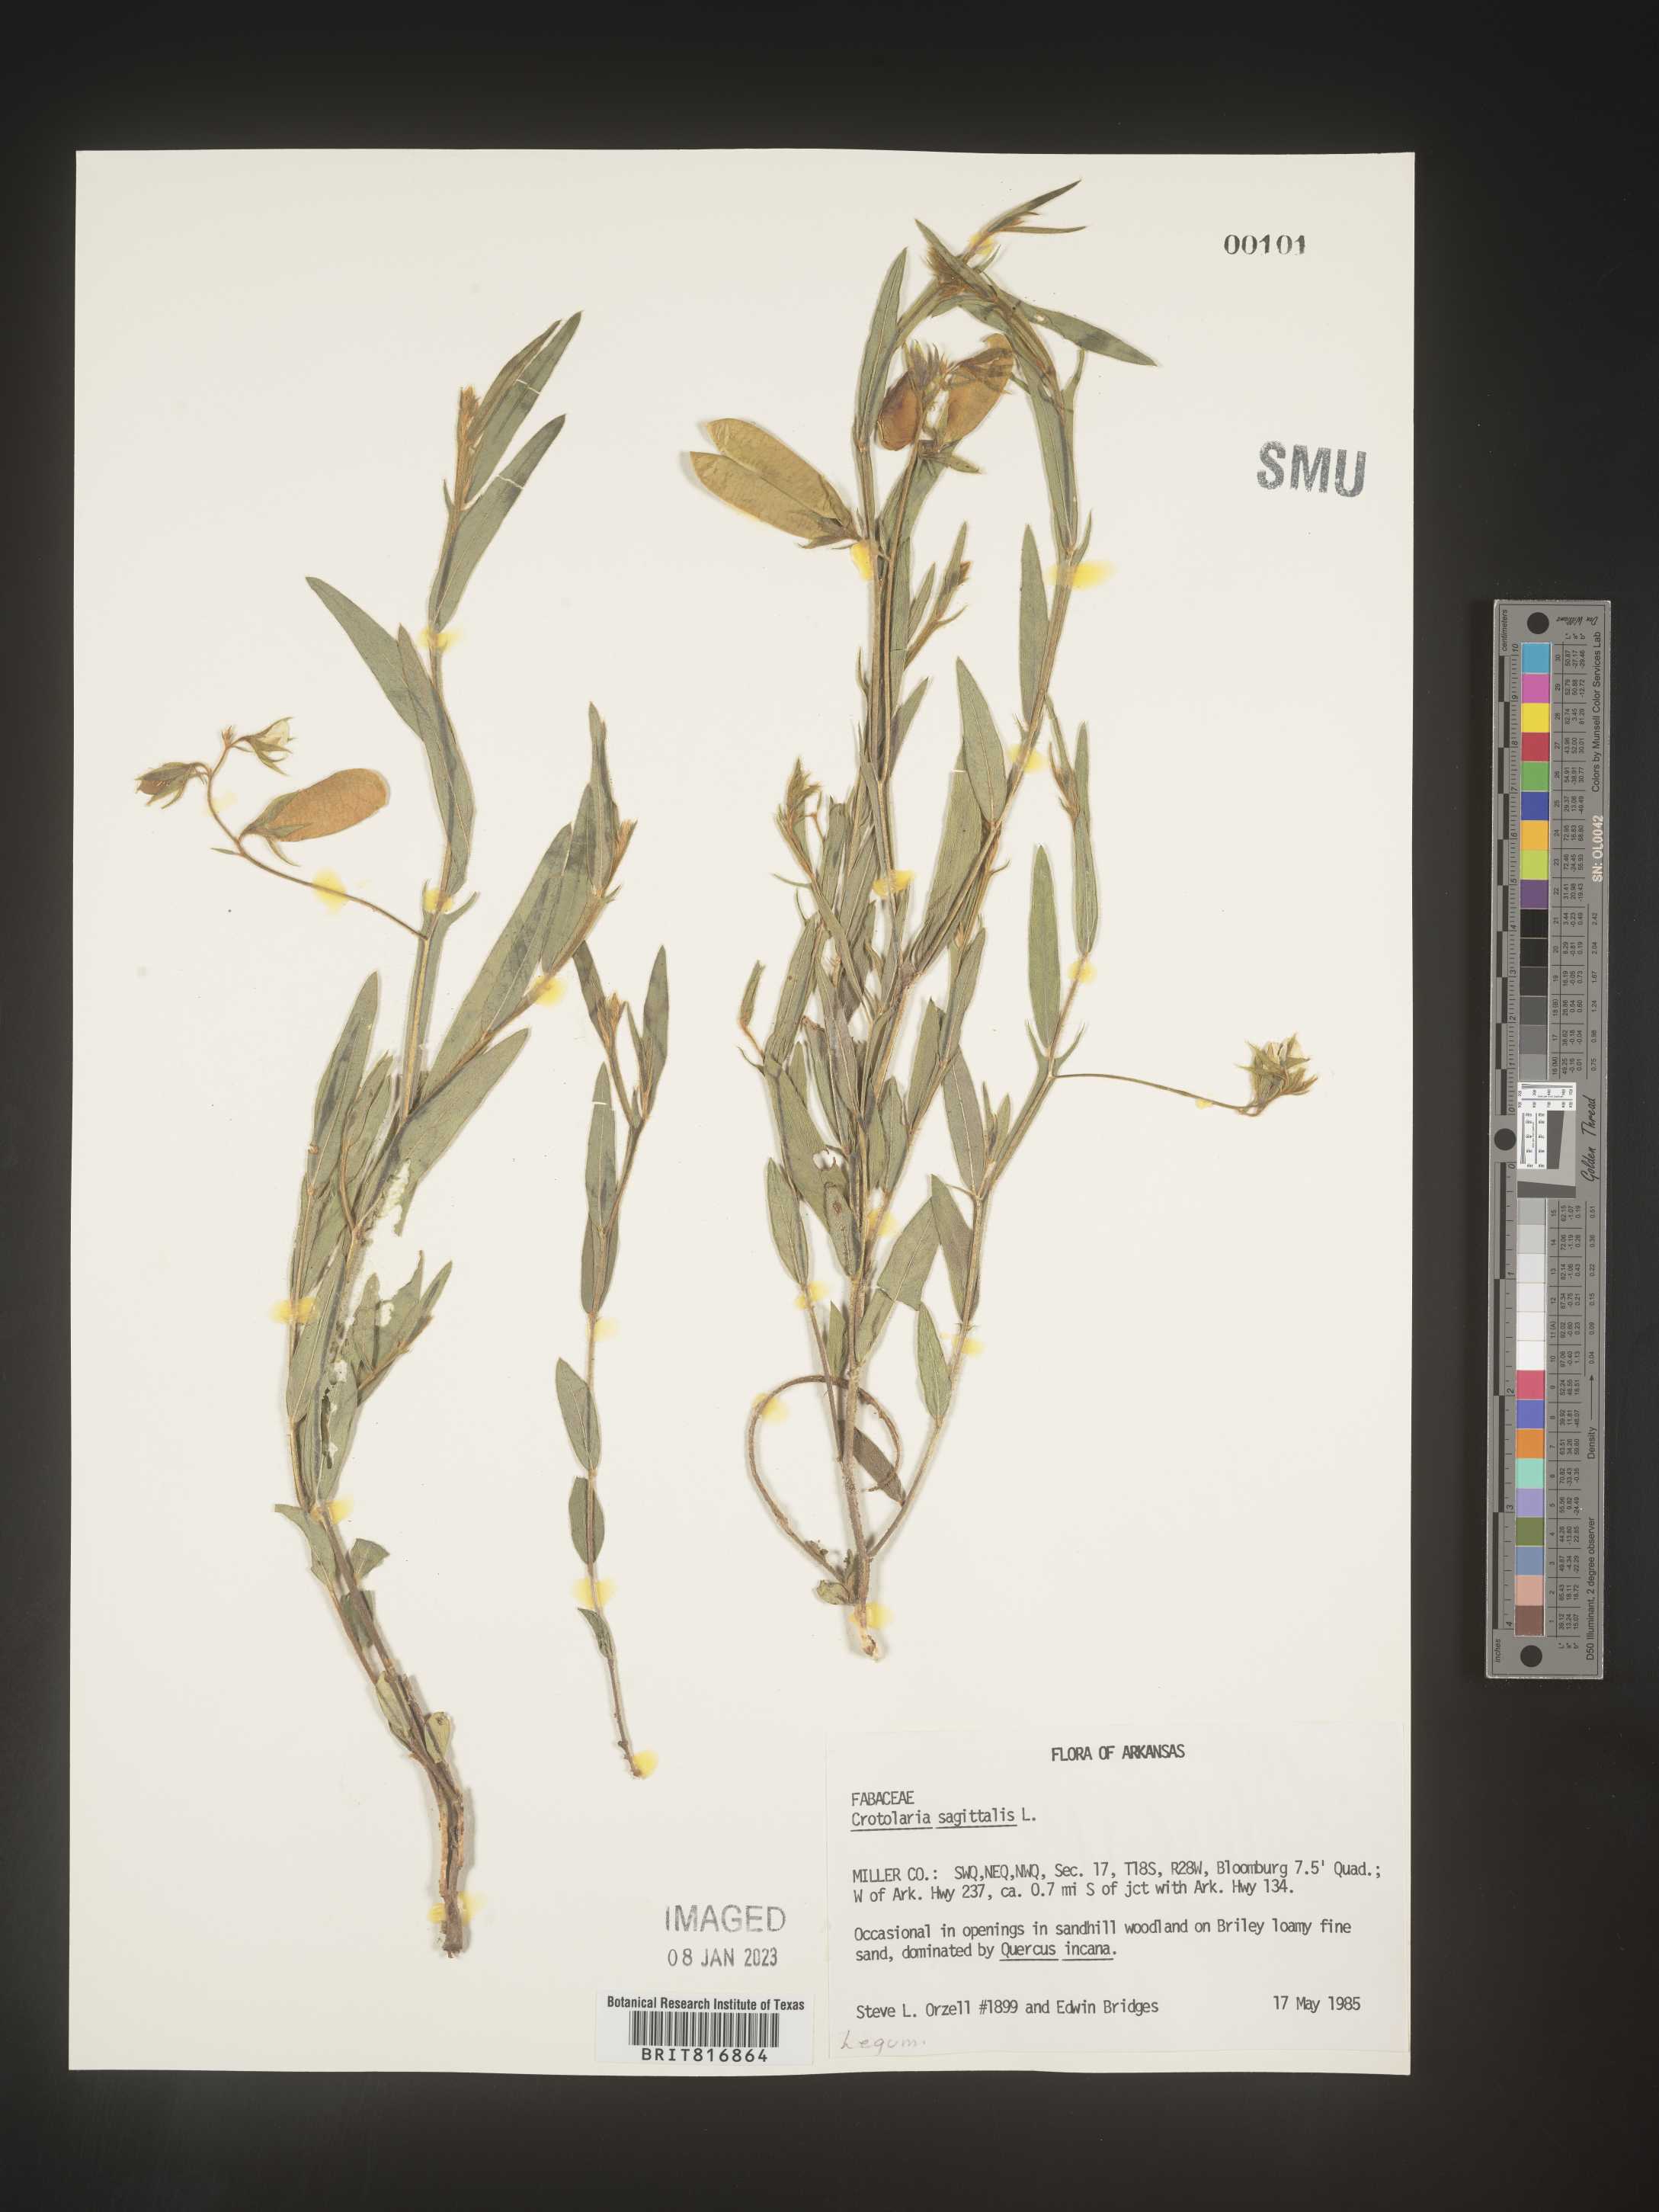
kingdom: Plantae
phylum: Tracheophyta
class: Magnoliopsida
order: Fabales
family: Fabaceae
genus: Crotalaria
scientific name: Crotalaria sagittalis
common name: Arrowhead rattlebox
